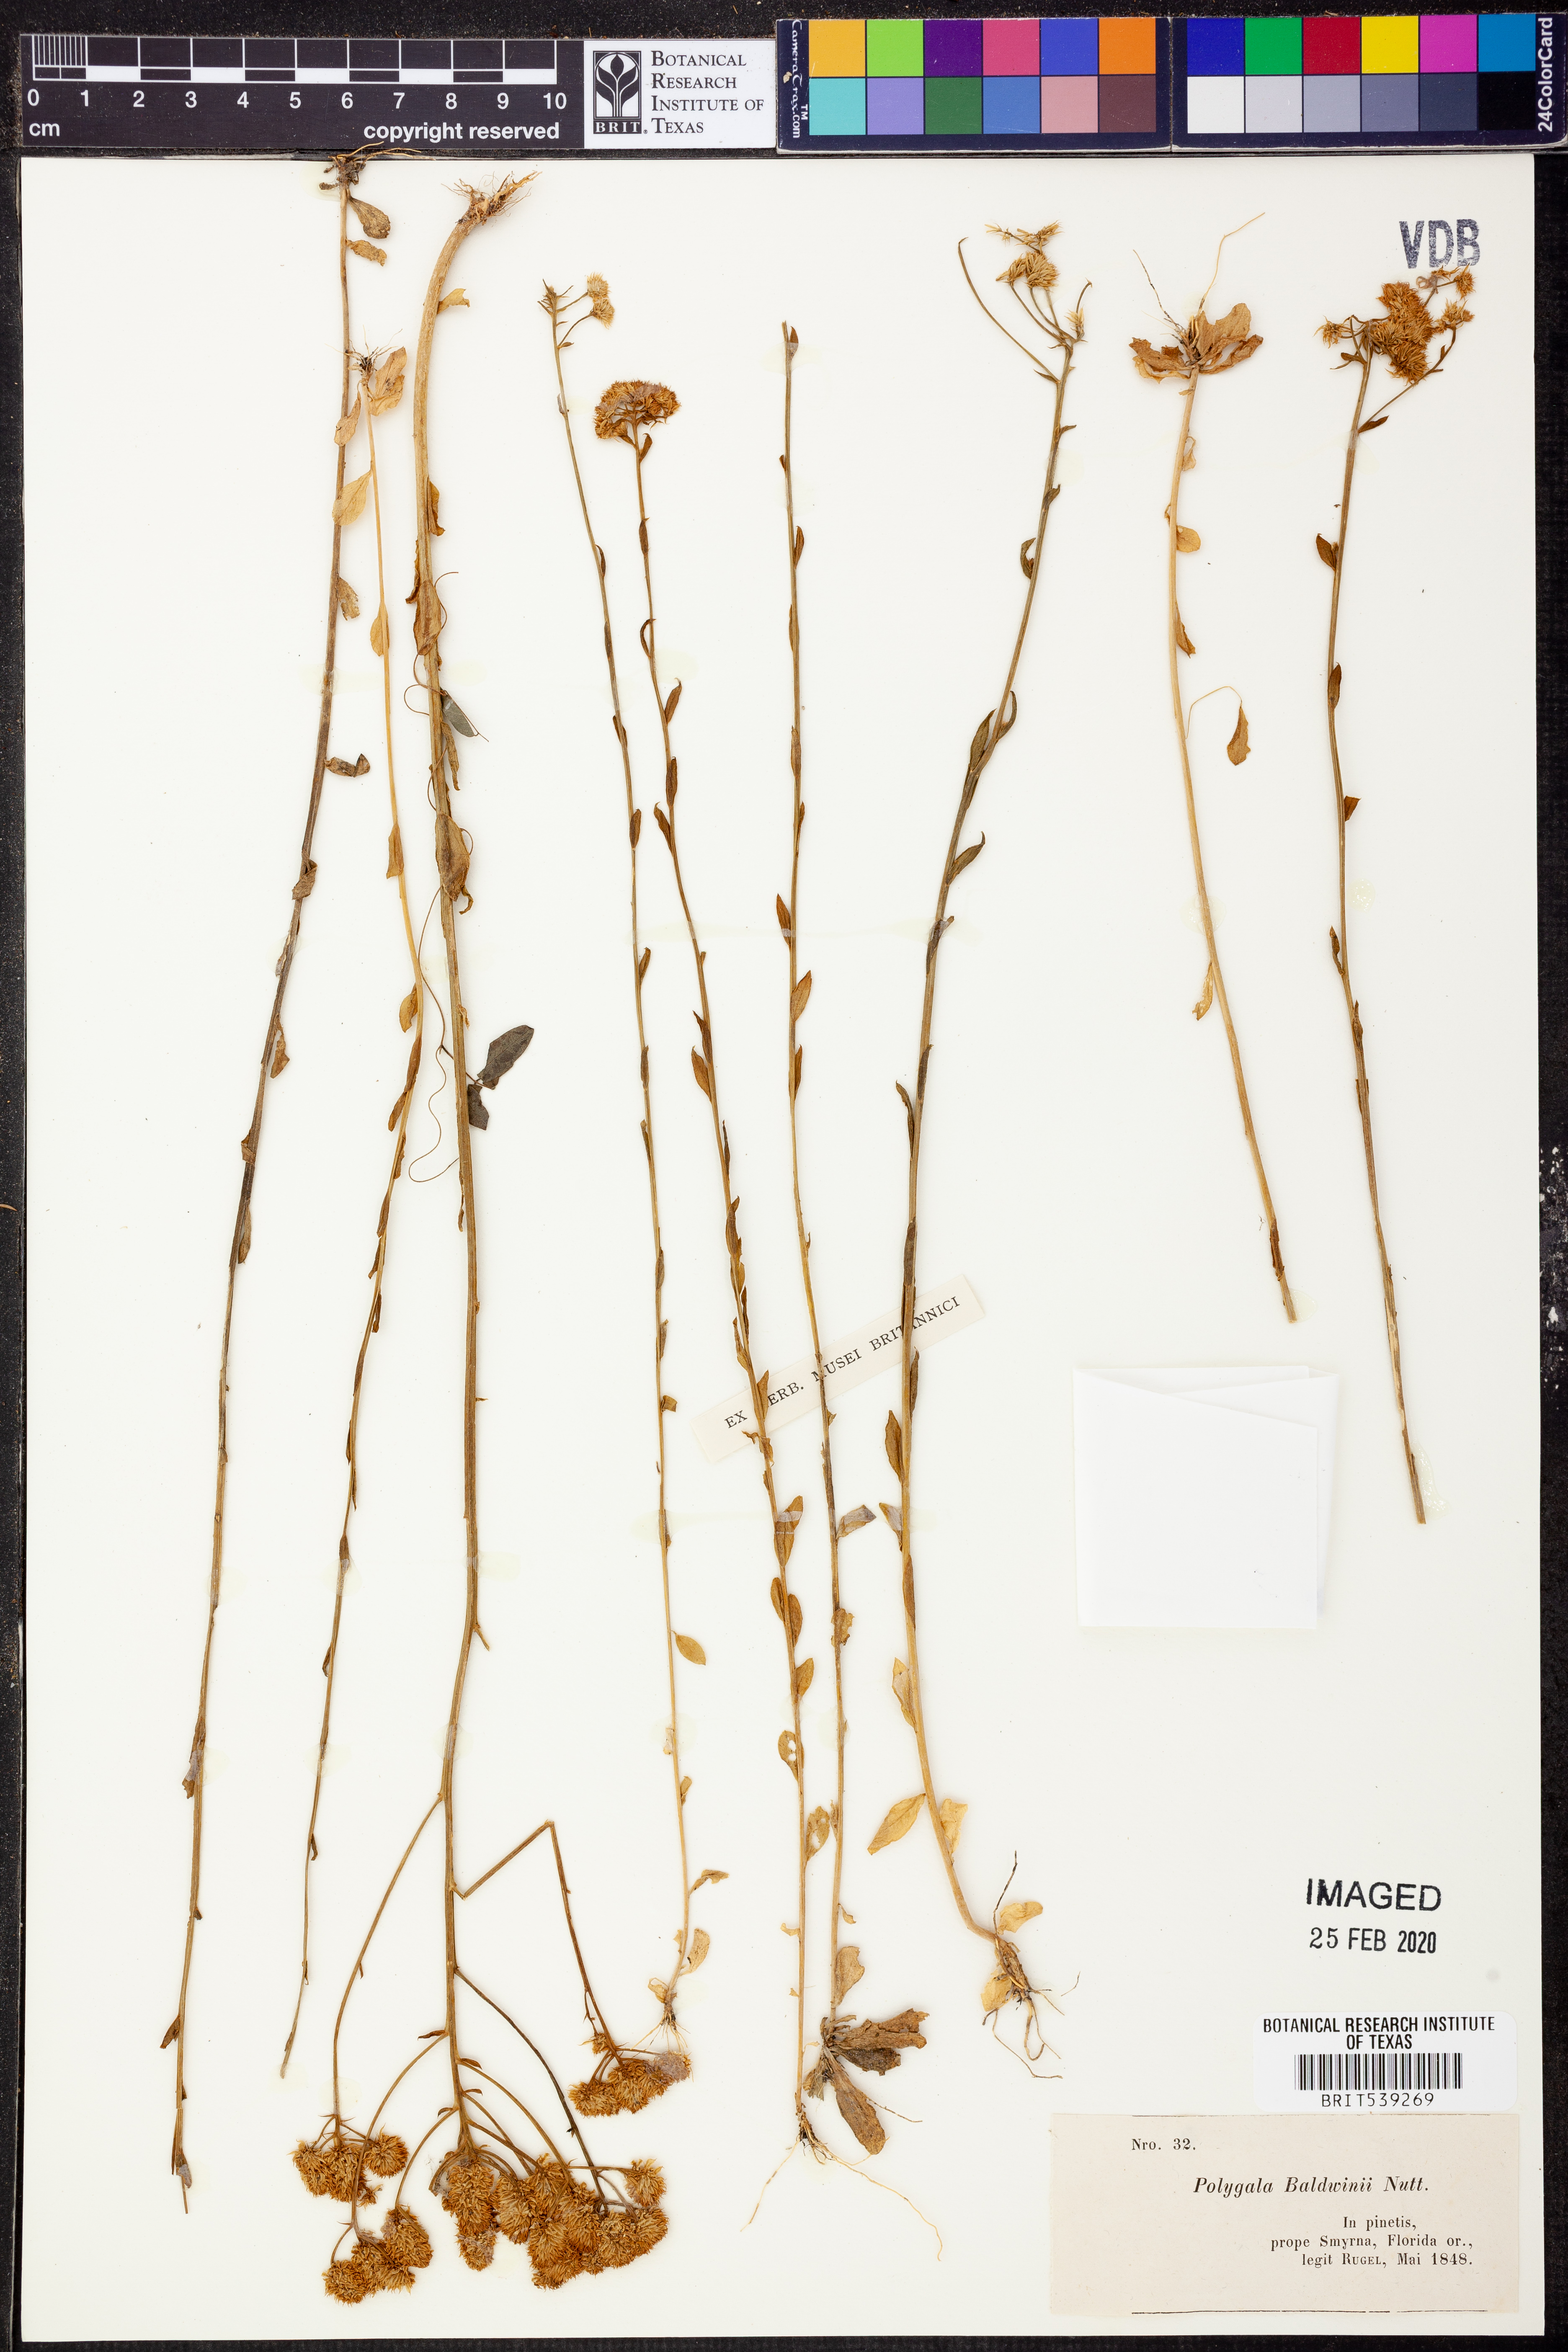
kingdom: Plantae
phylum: Tracheophyta
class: Magnoliopsida
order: Fabales
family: Polygalaceae
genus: Polygala
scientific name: Polygala baldwinii
